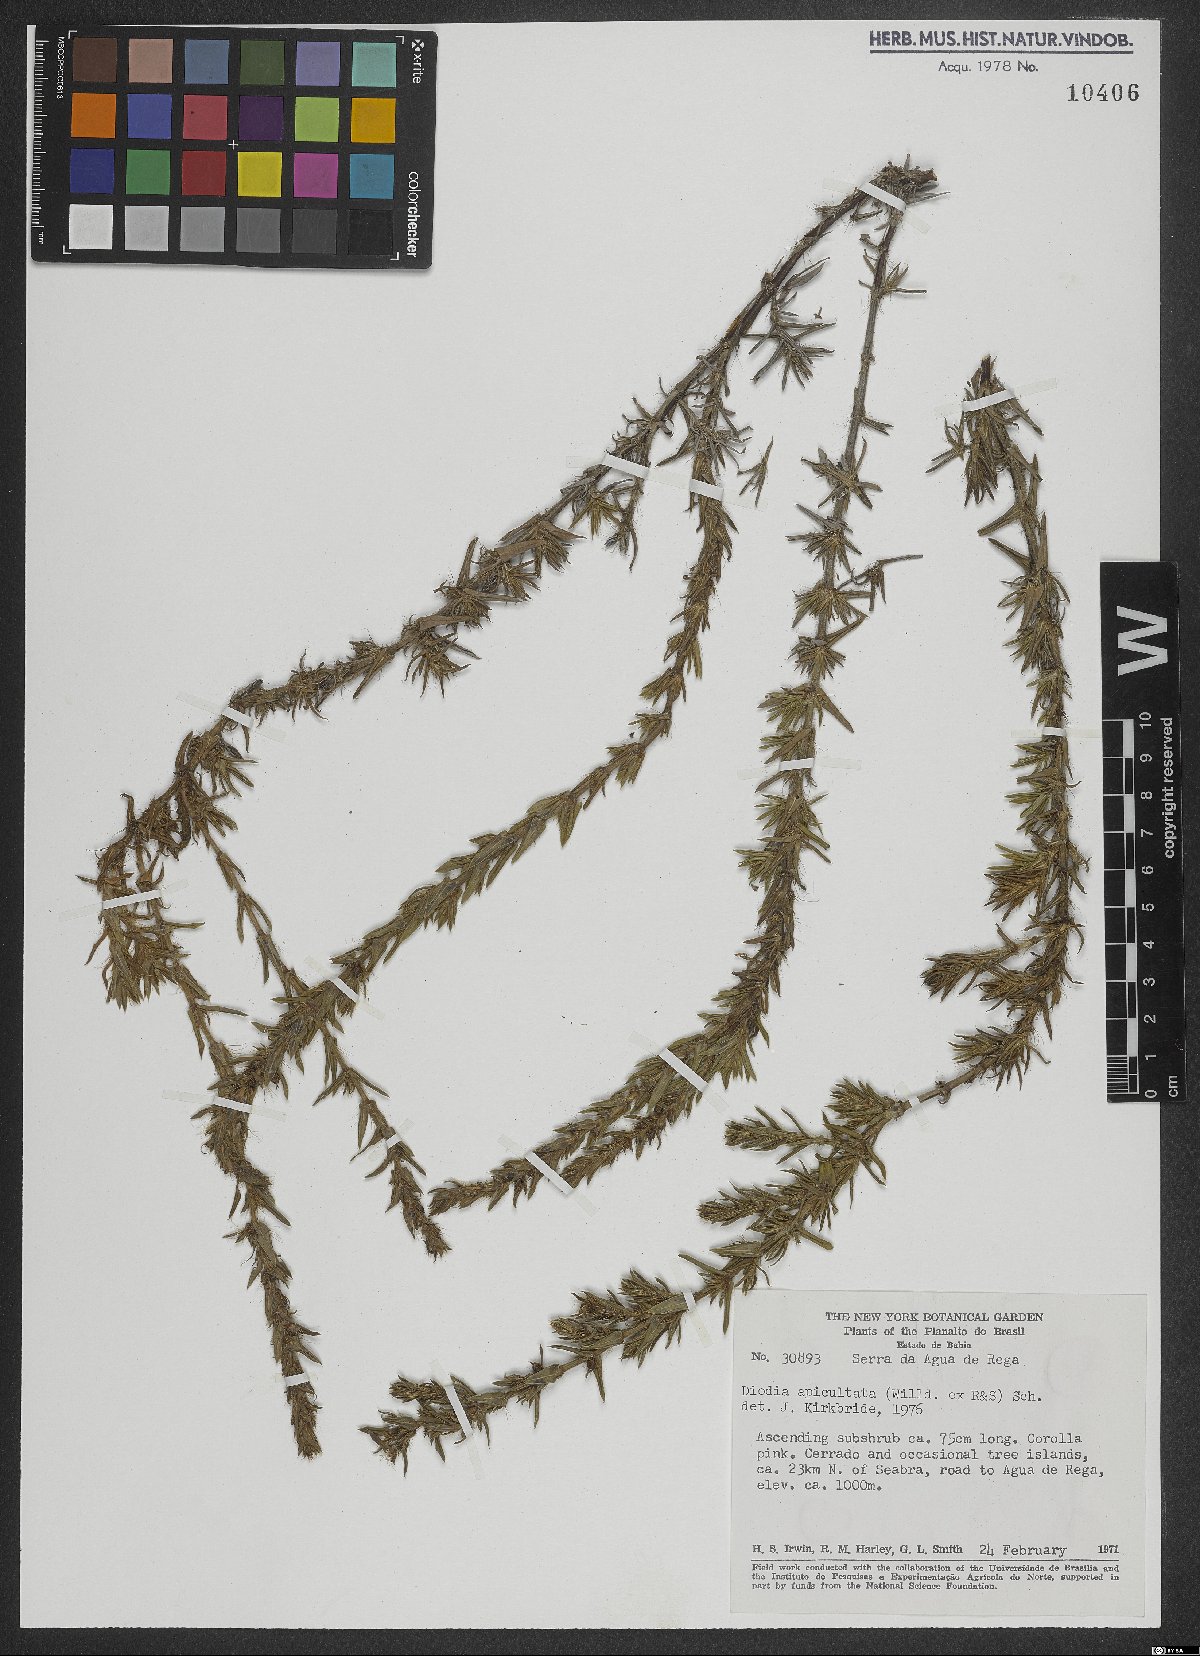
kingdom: Plantae
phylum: Tracheophyta
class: Magnoliopsida
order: Gentianales
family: Rubiaceae
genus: Hexasepalum
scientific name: Hexasepalum apiculatum
